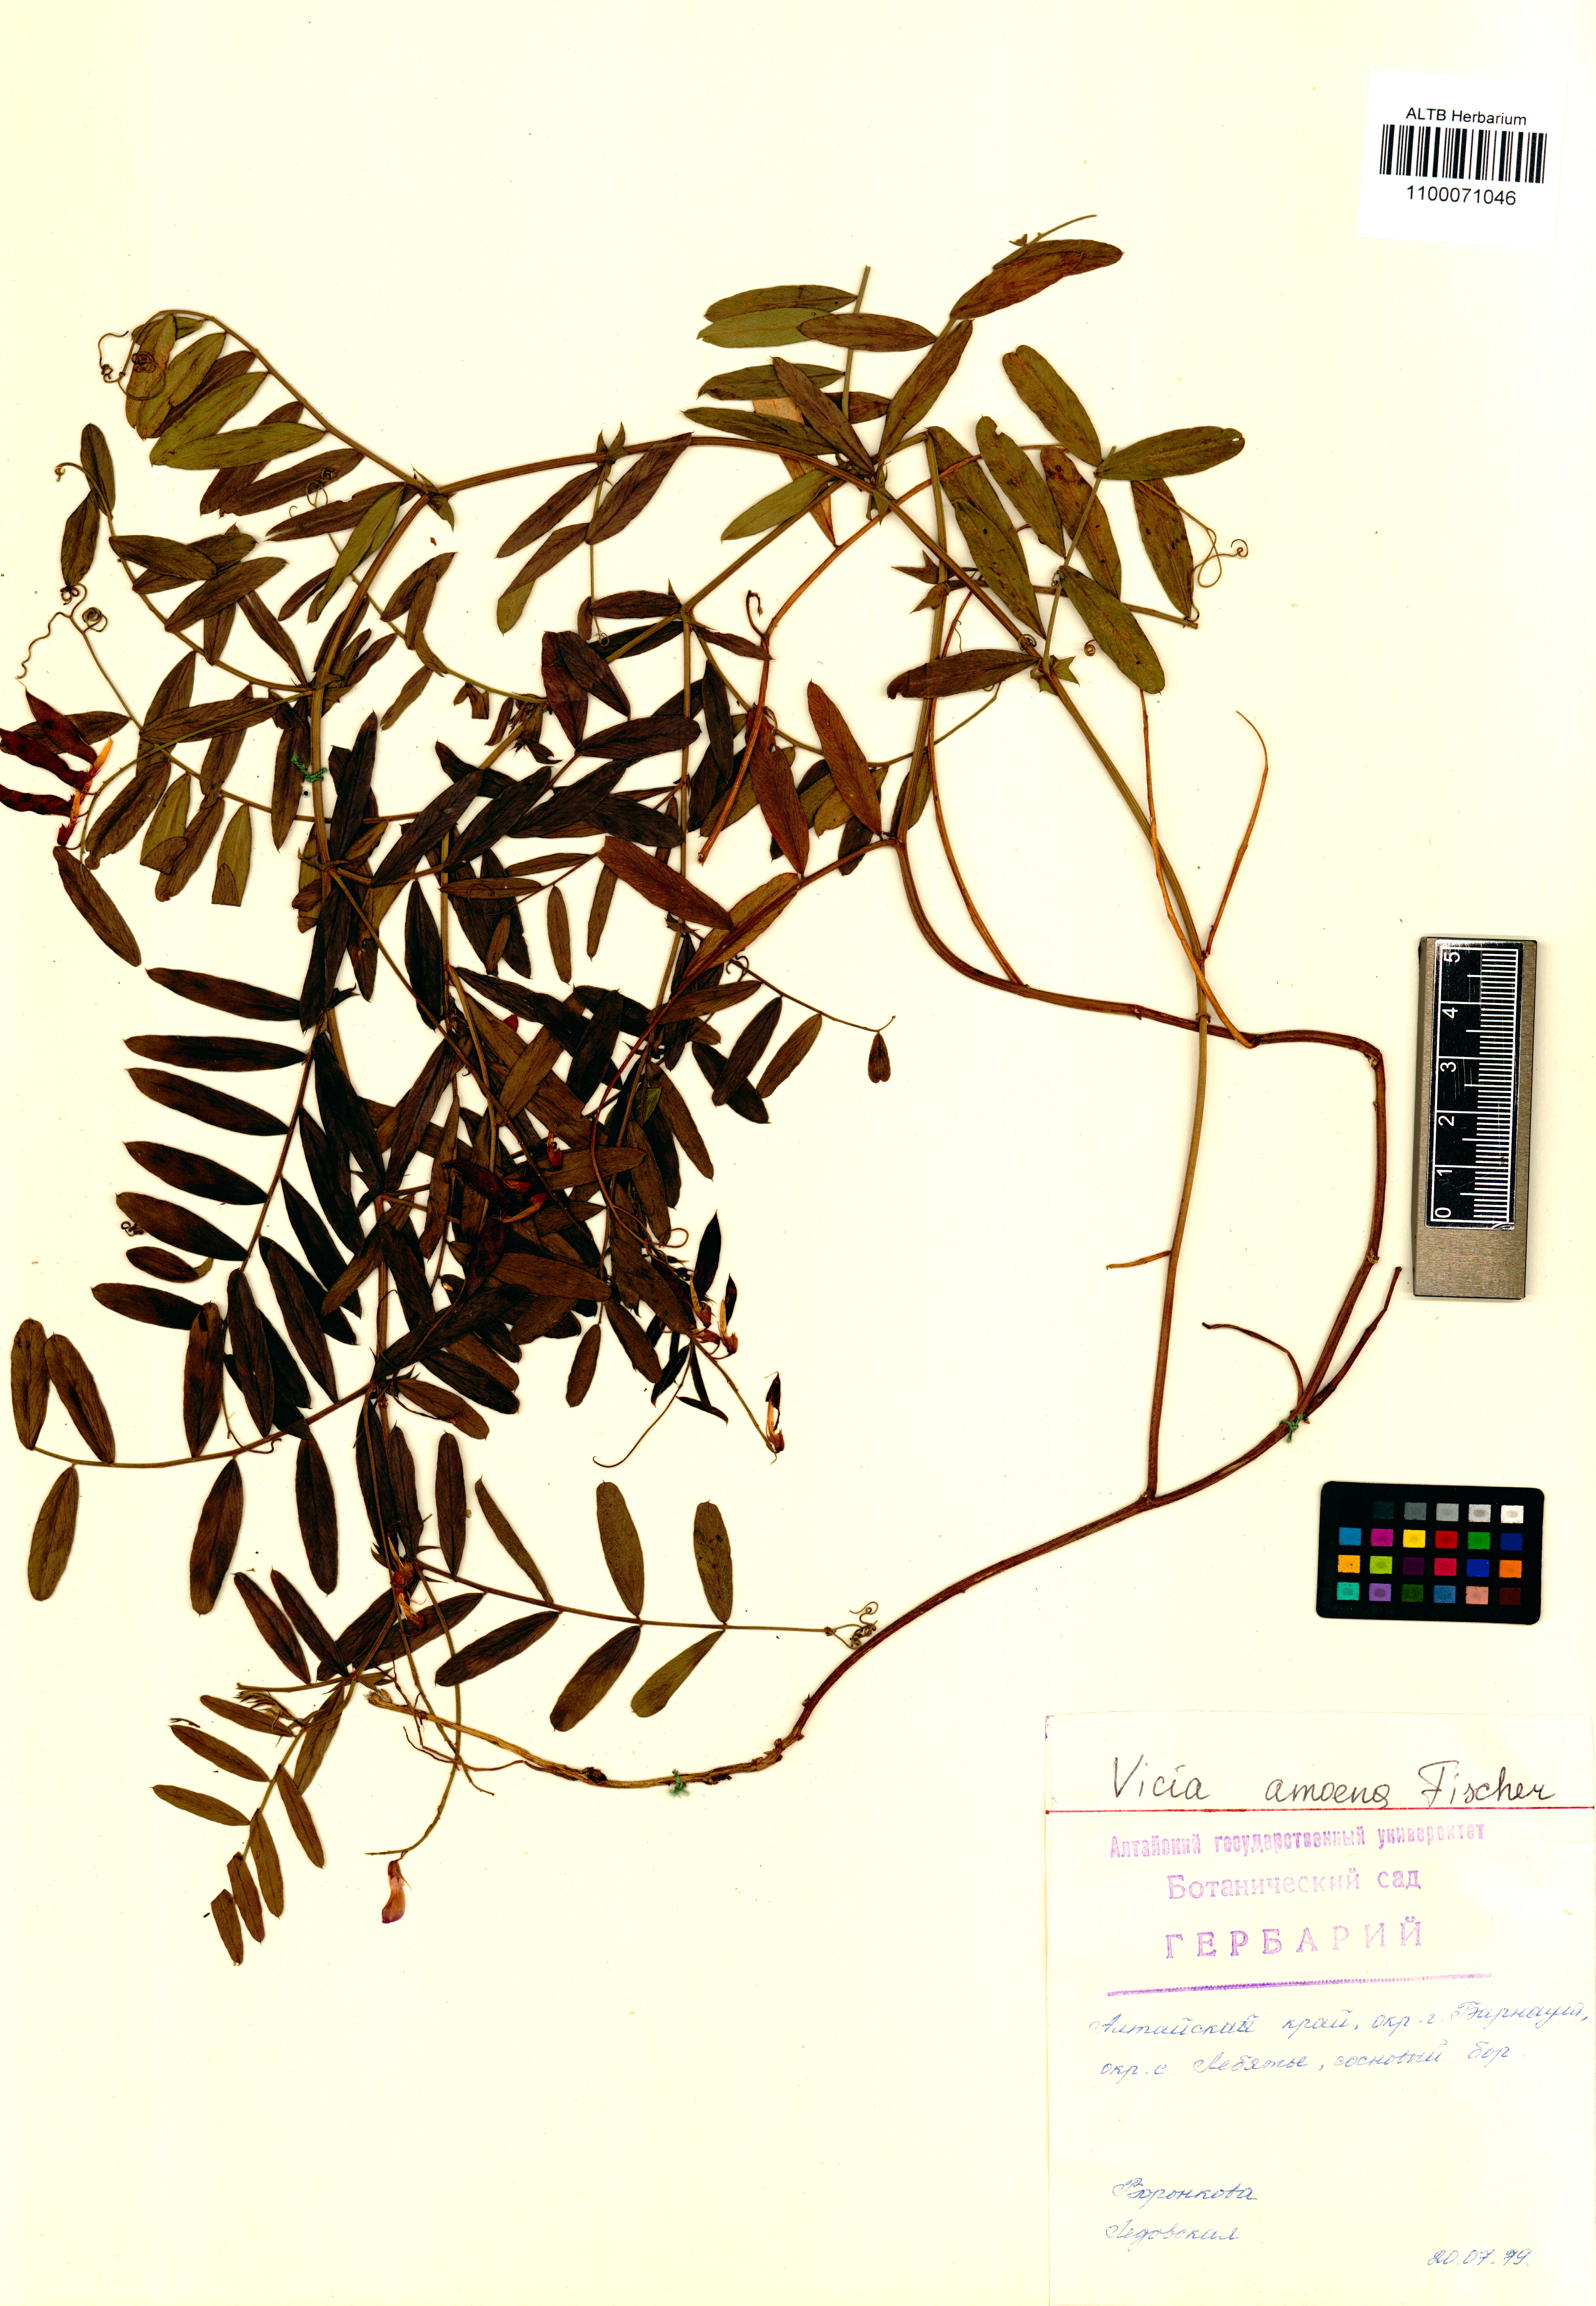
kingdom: Plantae
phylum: Tracheophyta
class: Magnoliopsida
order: Fabales
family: Fabaceae
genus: Vicia
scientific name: Vicia amoena
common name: Cheder ebs
